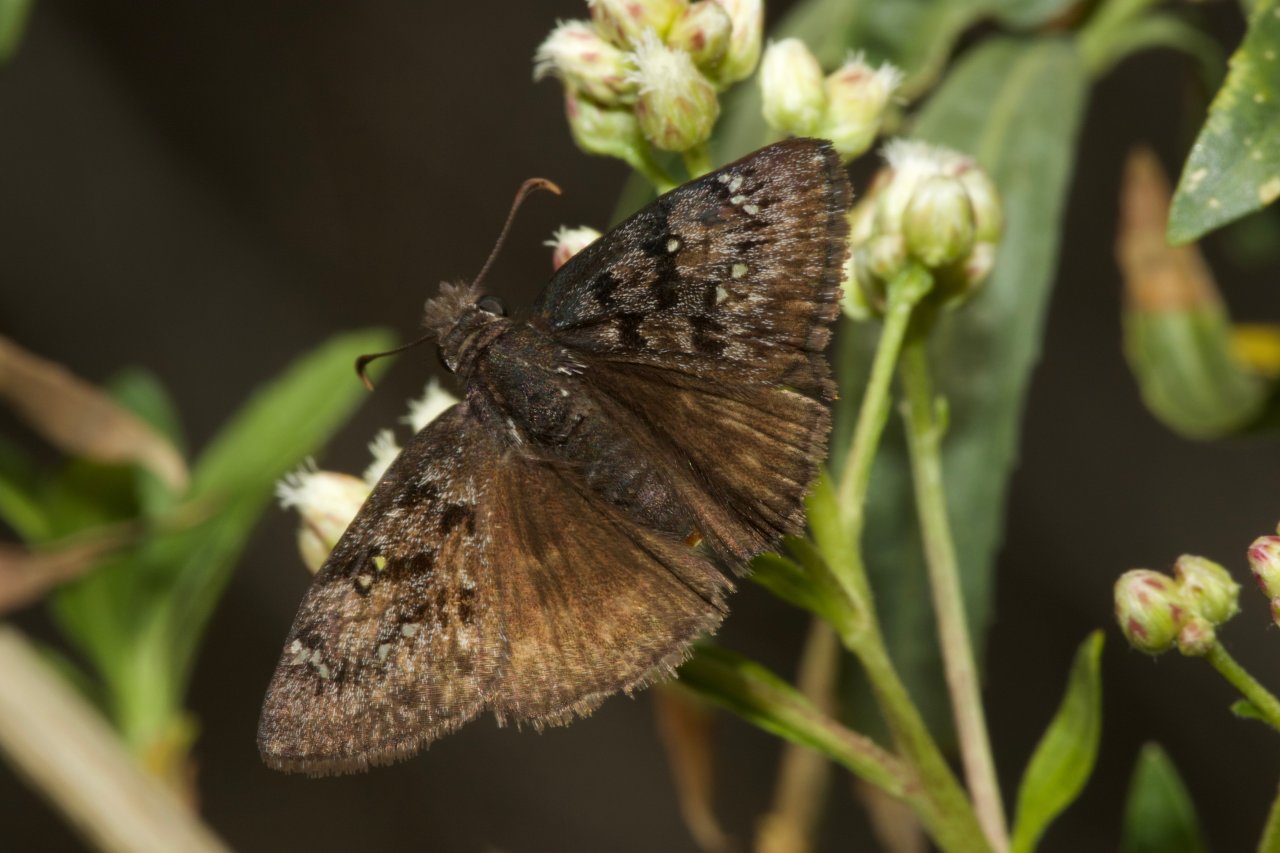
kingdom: Animalia
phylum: Arthropoda
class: Insecta
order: Lepidoptera
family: Hesperiidae
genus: Erynnis
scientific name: Erynnis meridianus
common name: Meridian Duskywing
